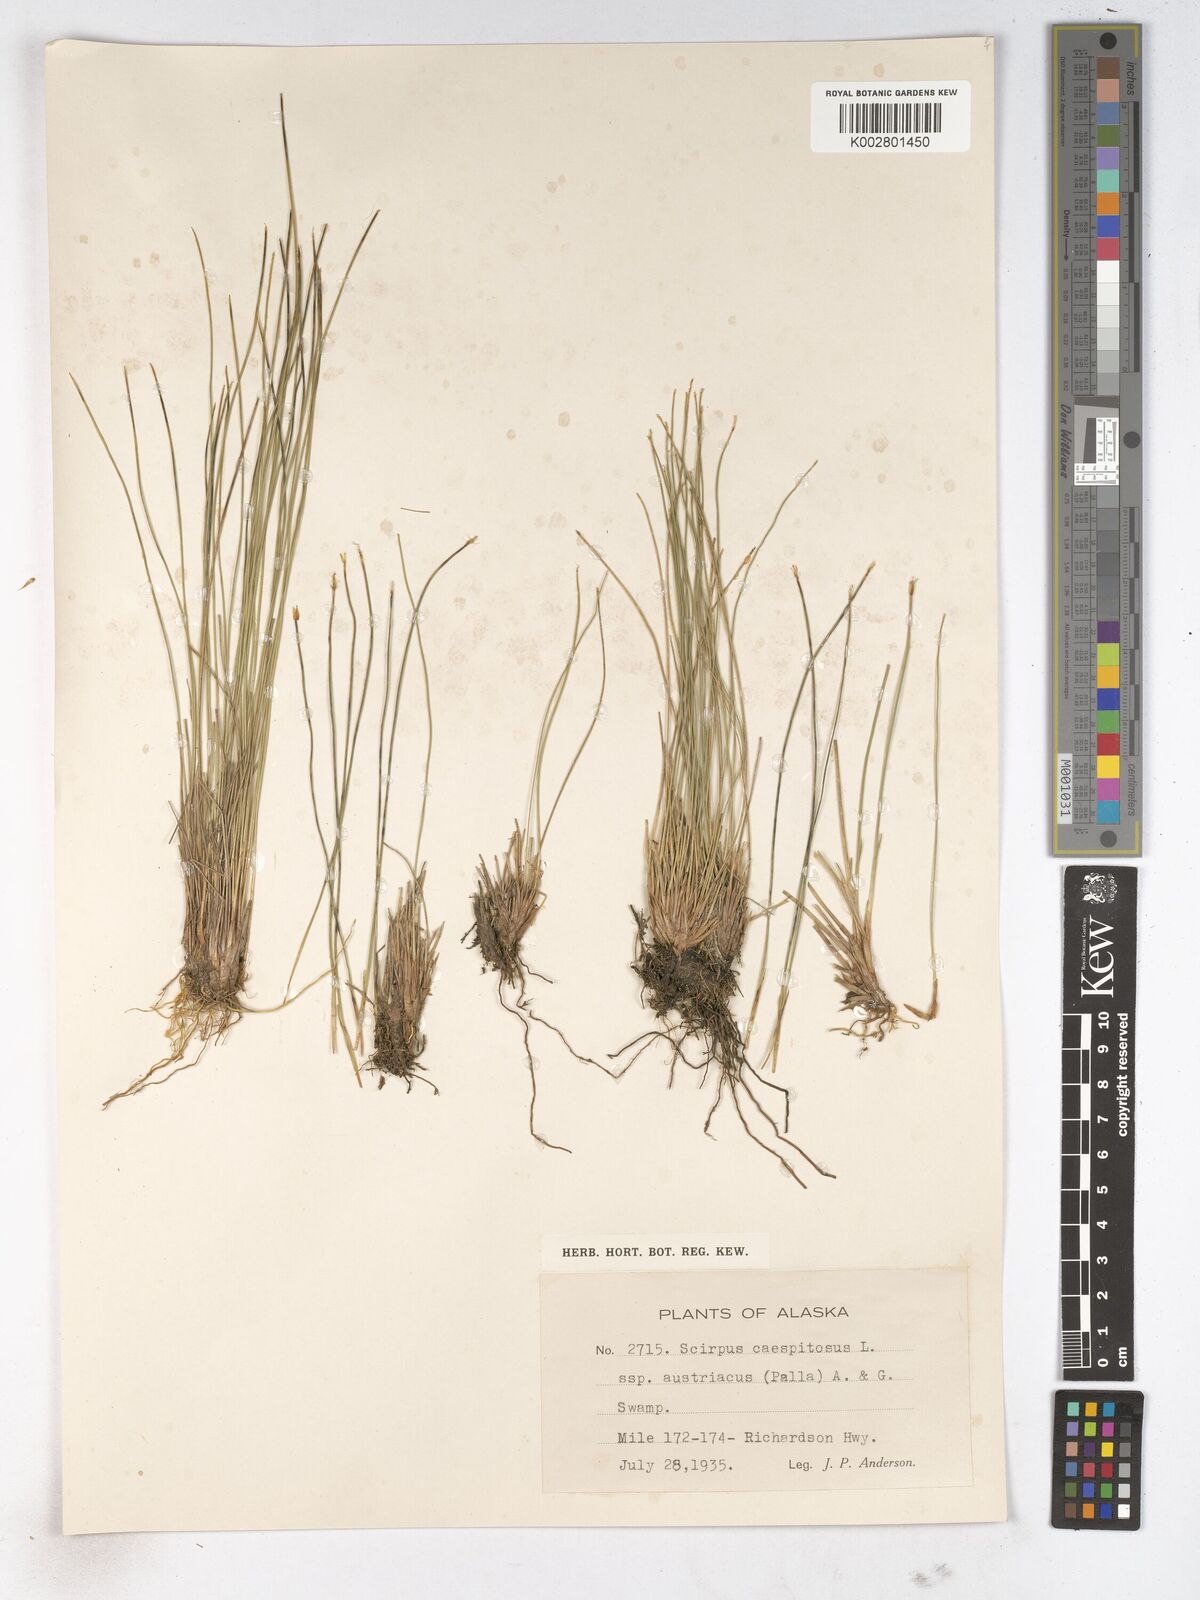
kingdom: Plantae
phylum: Tracheophyta
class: Liliopsida
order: Poales
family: Cyperaceae
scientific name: Cyperaceae
